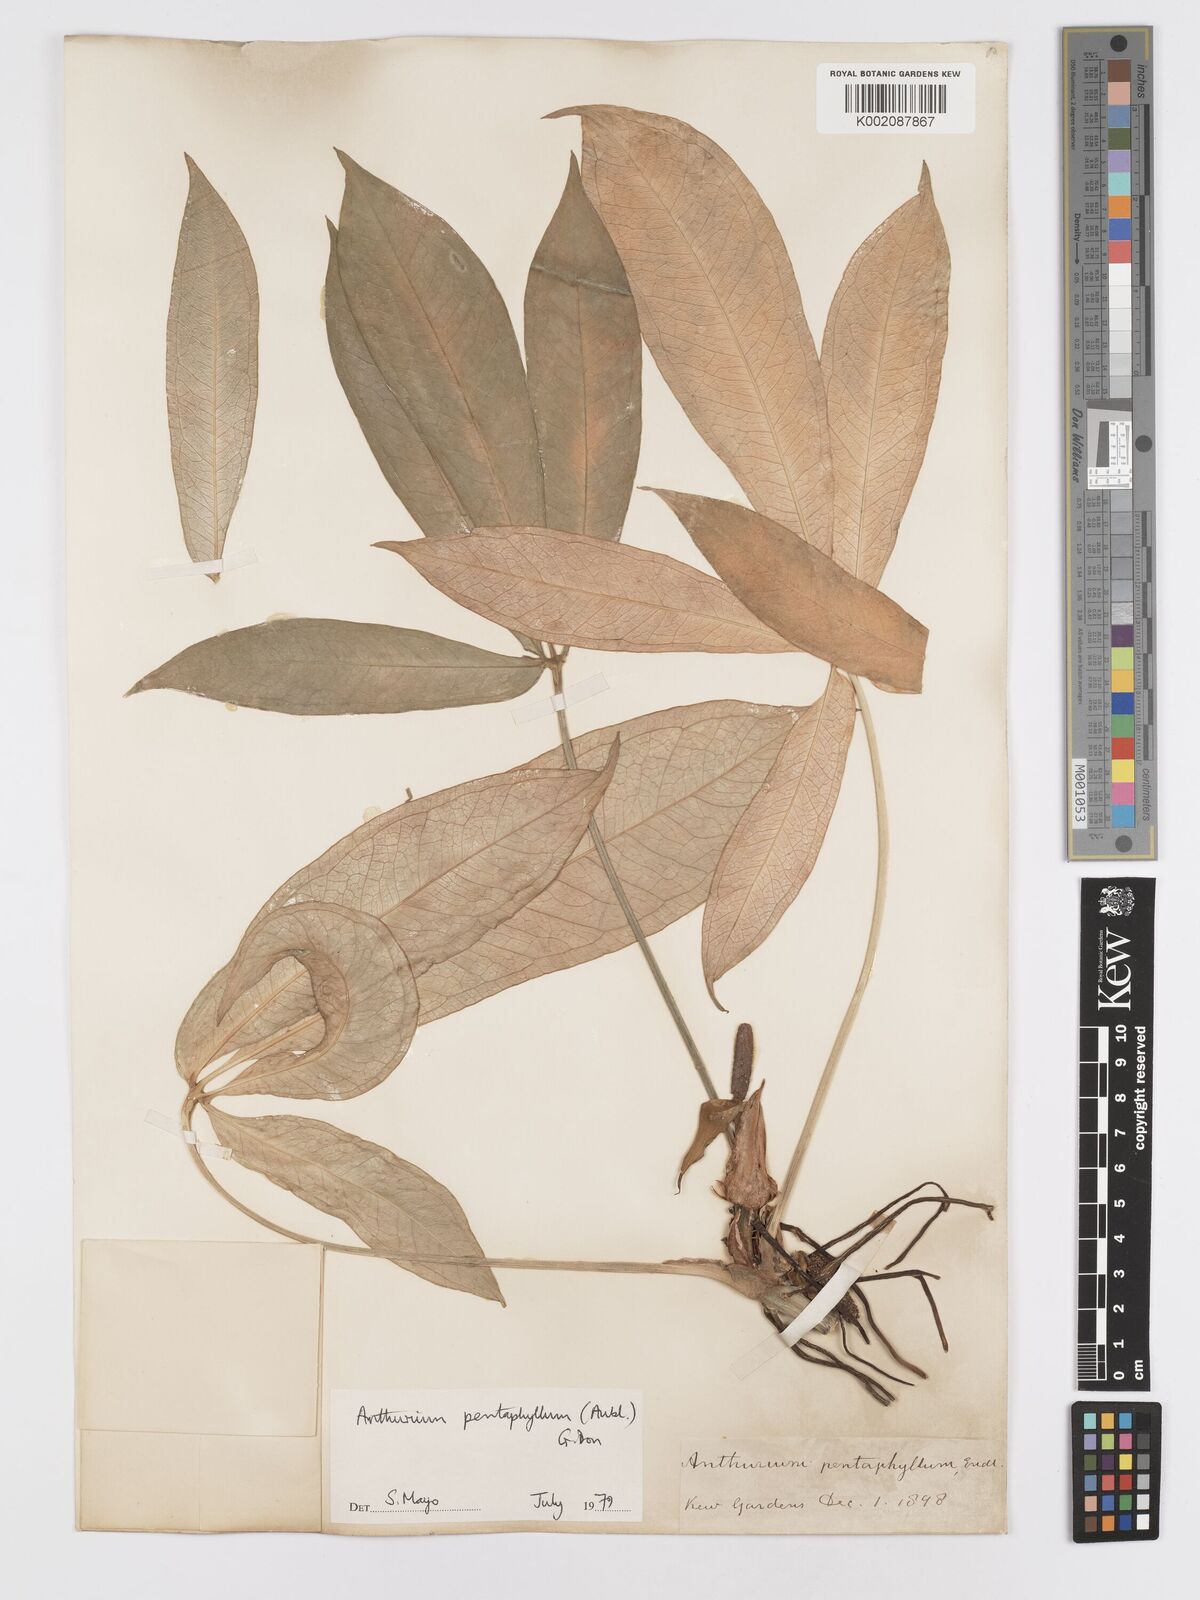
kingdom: Plantae
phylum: Tracheophyta
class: Liliopsida
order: Alismatales
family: Araceae
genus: Anthurium
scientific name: Anthurium pentaphyllum
